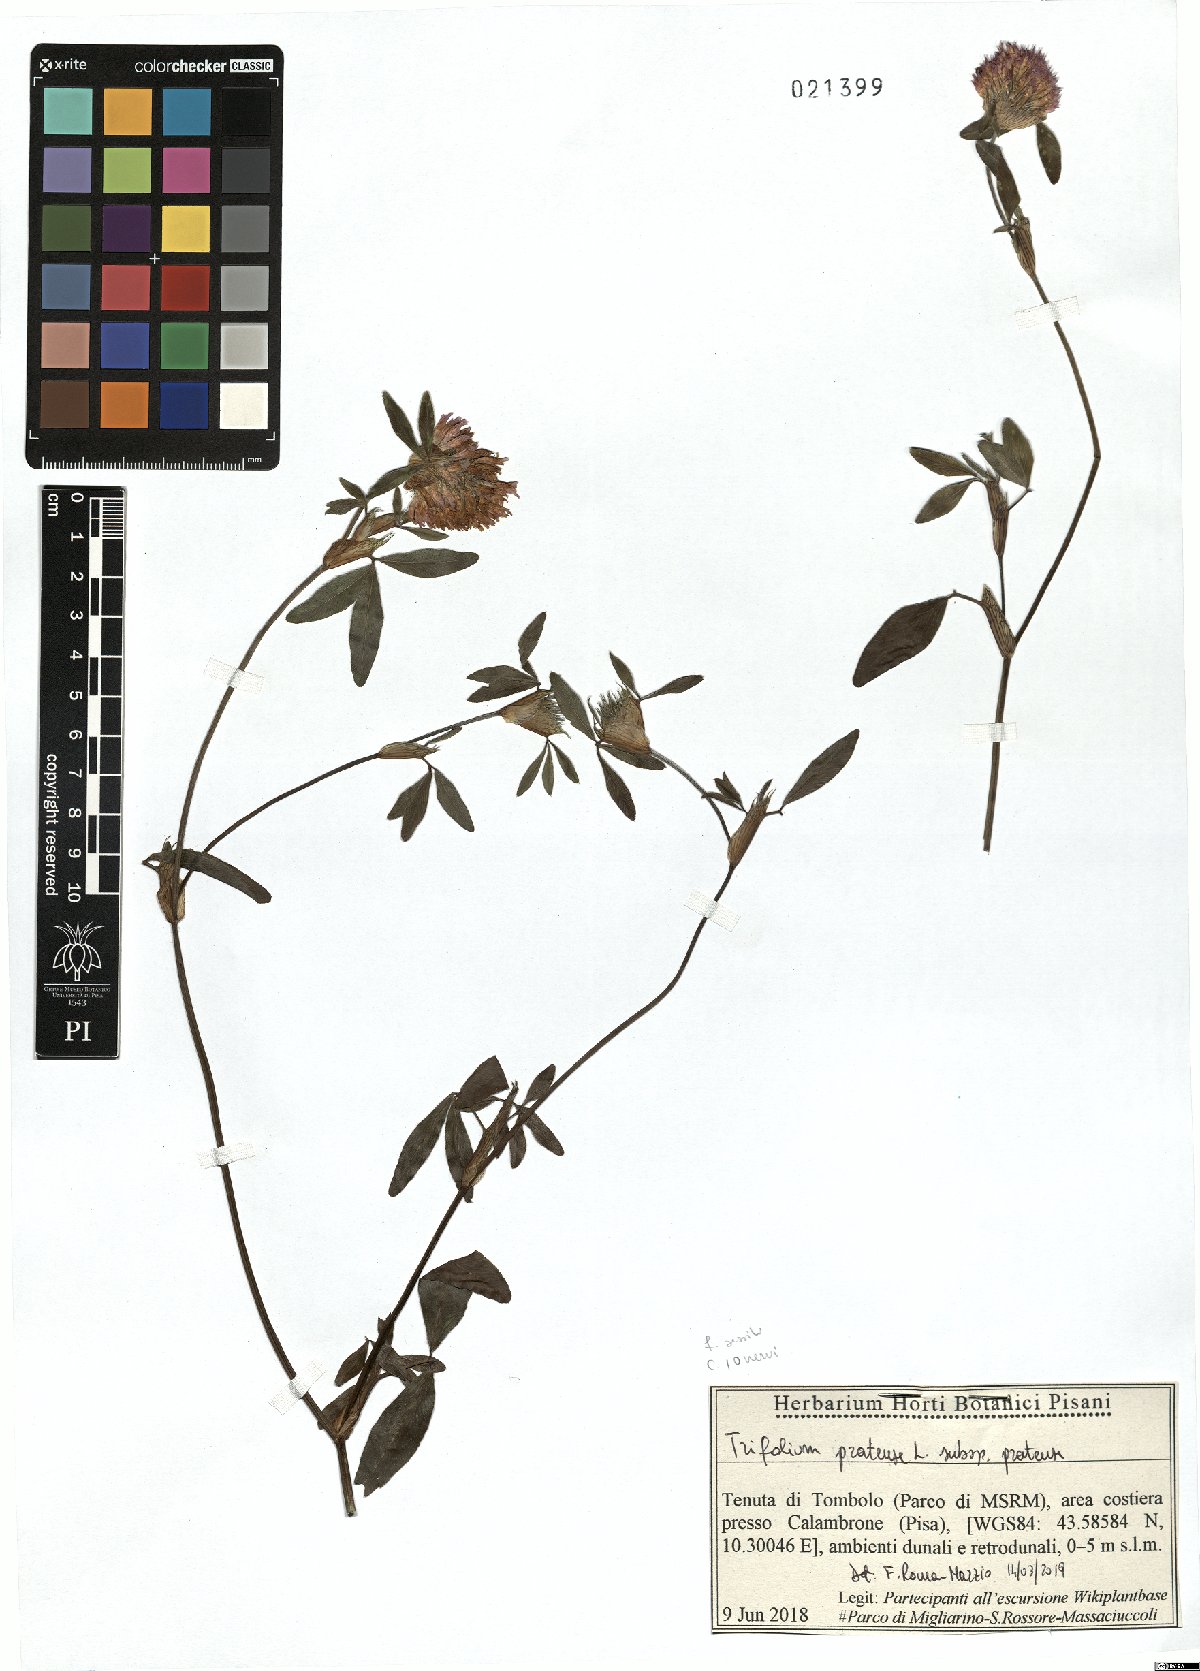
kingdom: Plantae
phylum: Tracheophyta
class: Magnoliopsida
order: Fabales
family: Fabaceae
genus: Trifolium
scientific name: Trifolium pratense
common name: Red clover
